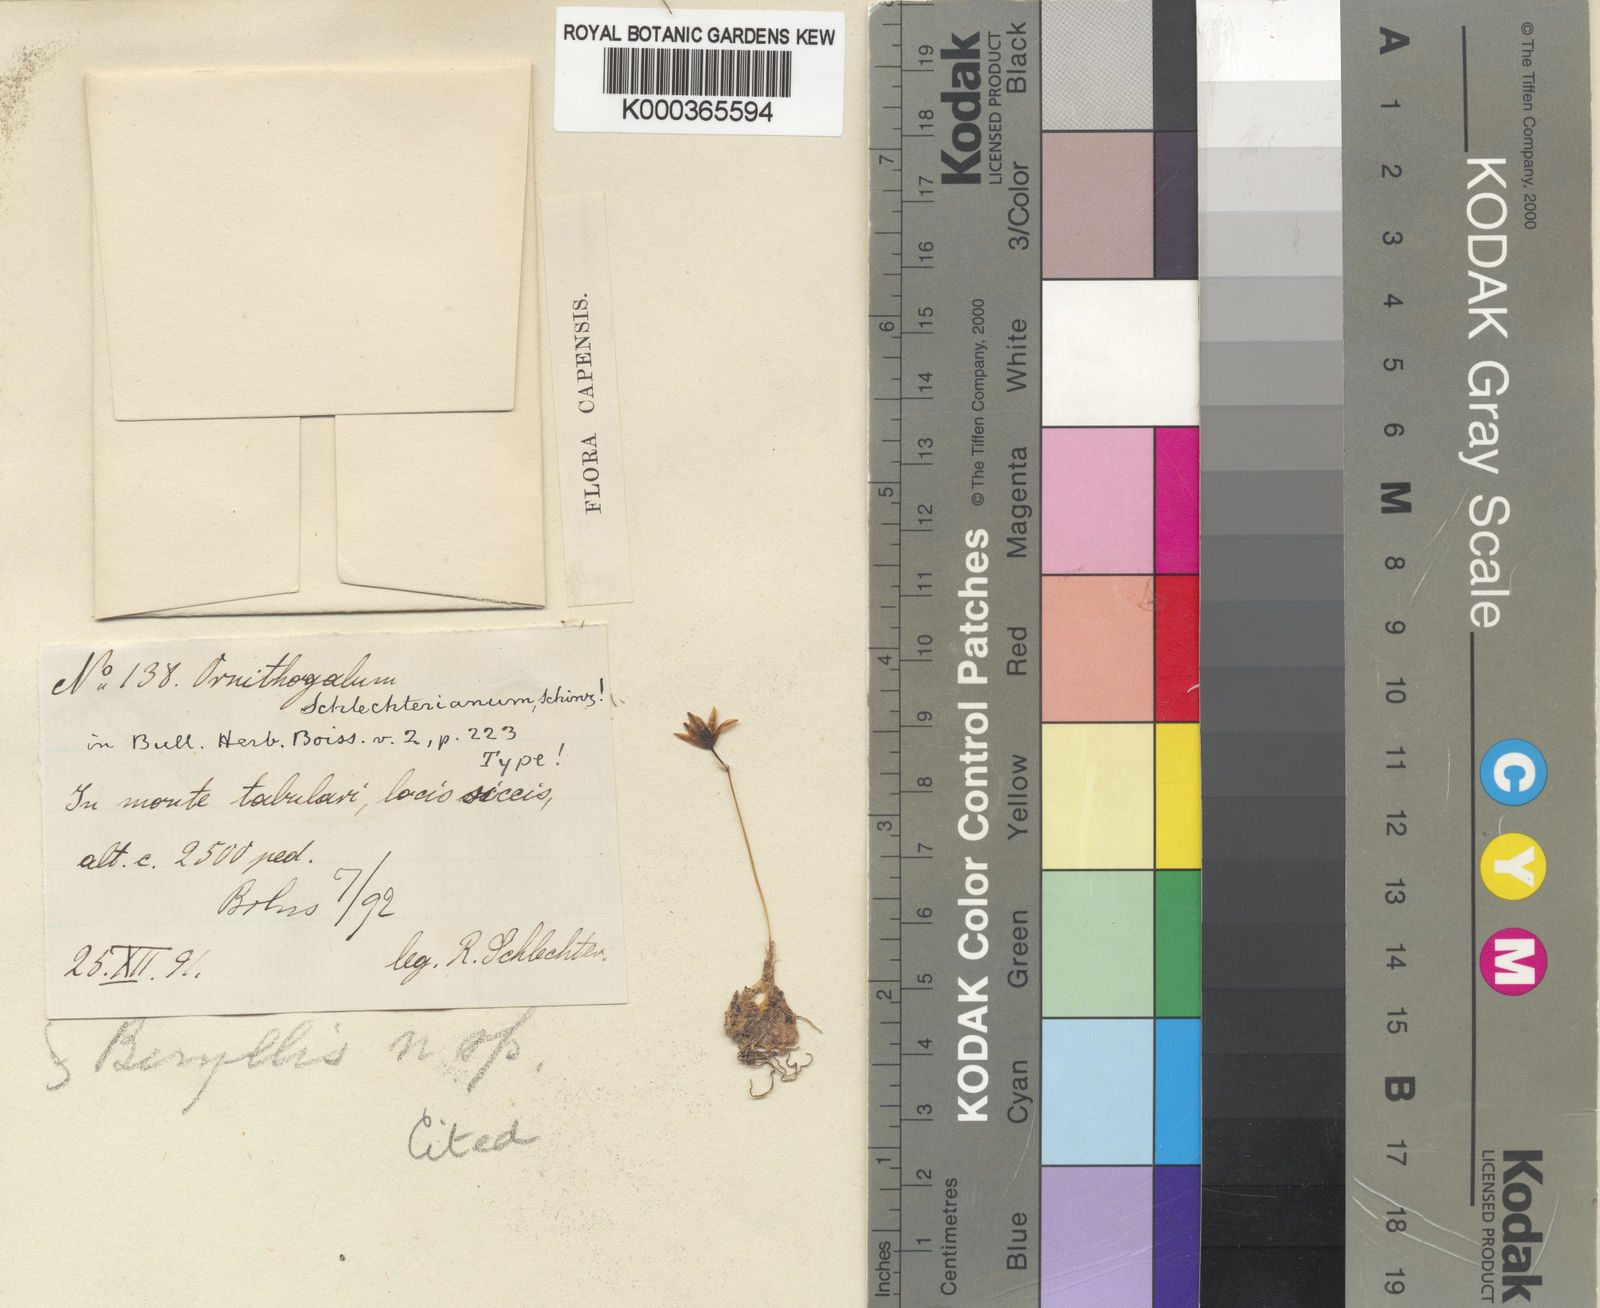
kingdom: Plantae
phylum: Tracheophyta
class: Liliopsida
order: Asparagales
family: Asparagaceae
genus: Ornithogalum
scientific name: Ornithogalum
